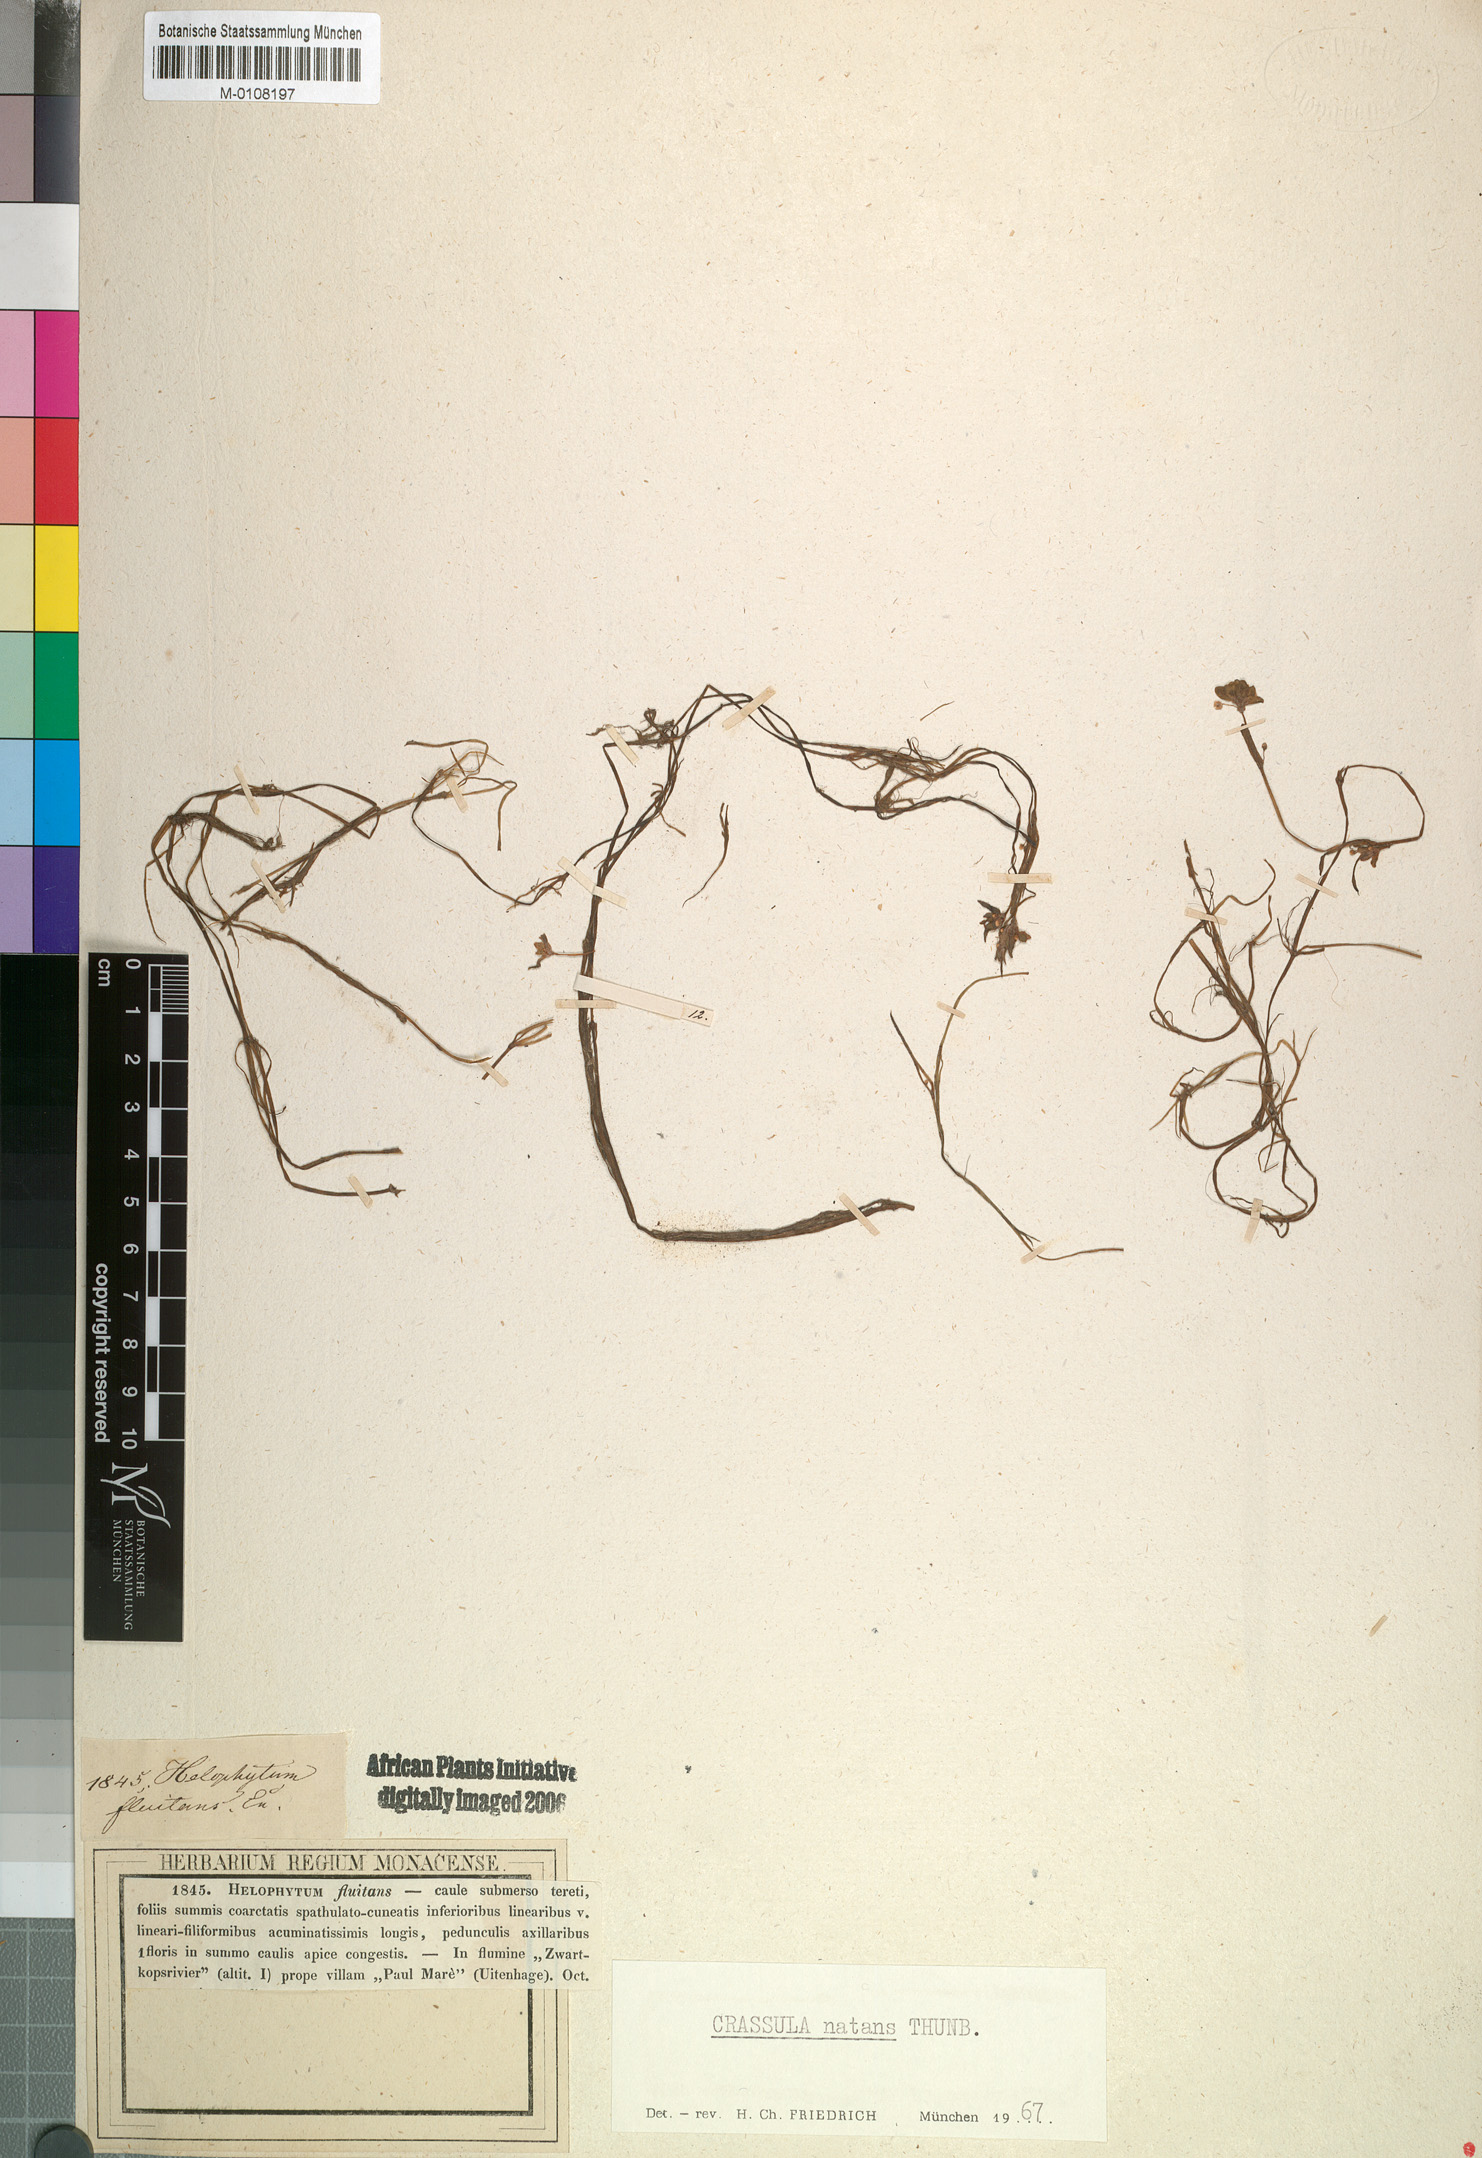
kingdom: Plantae
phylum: Tracheophyta
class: Magnoliopsida
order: Saxifragales
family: Crassulaceae
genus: Crassula
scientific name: Crassula natans
